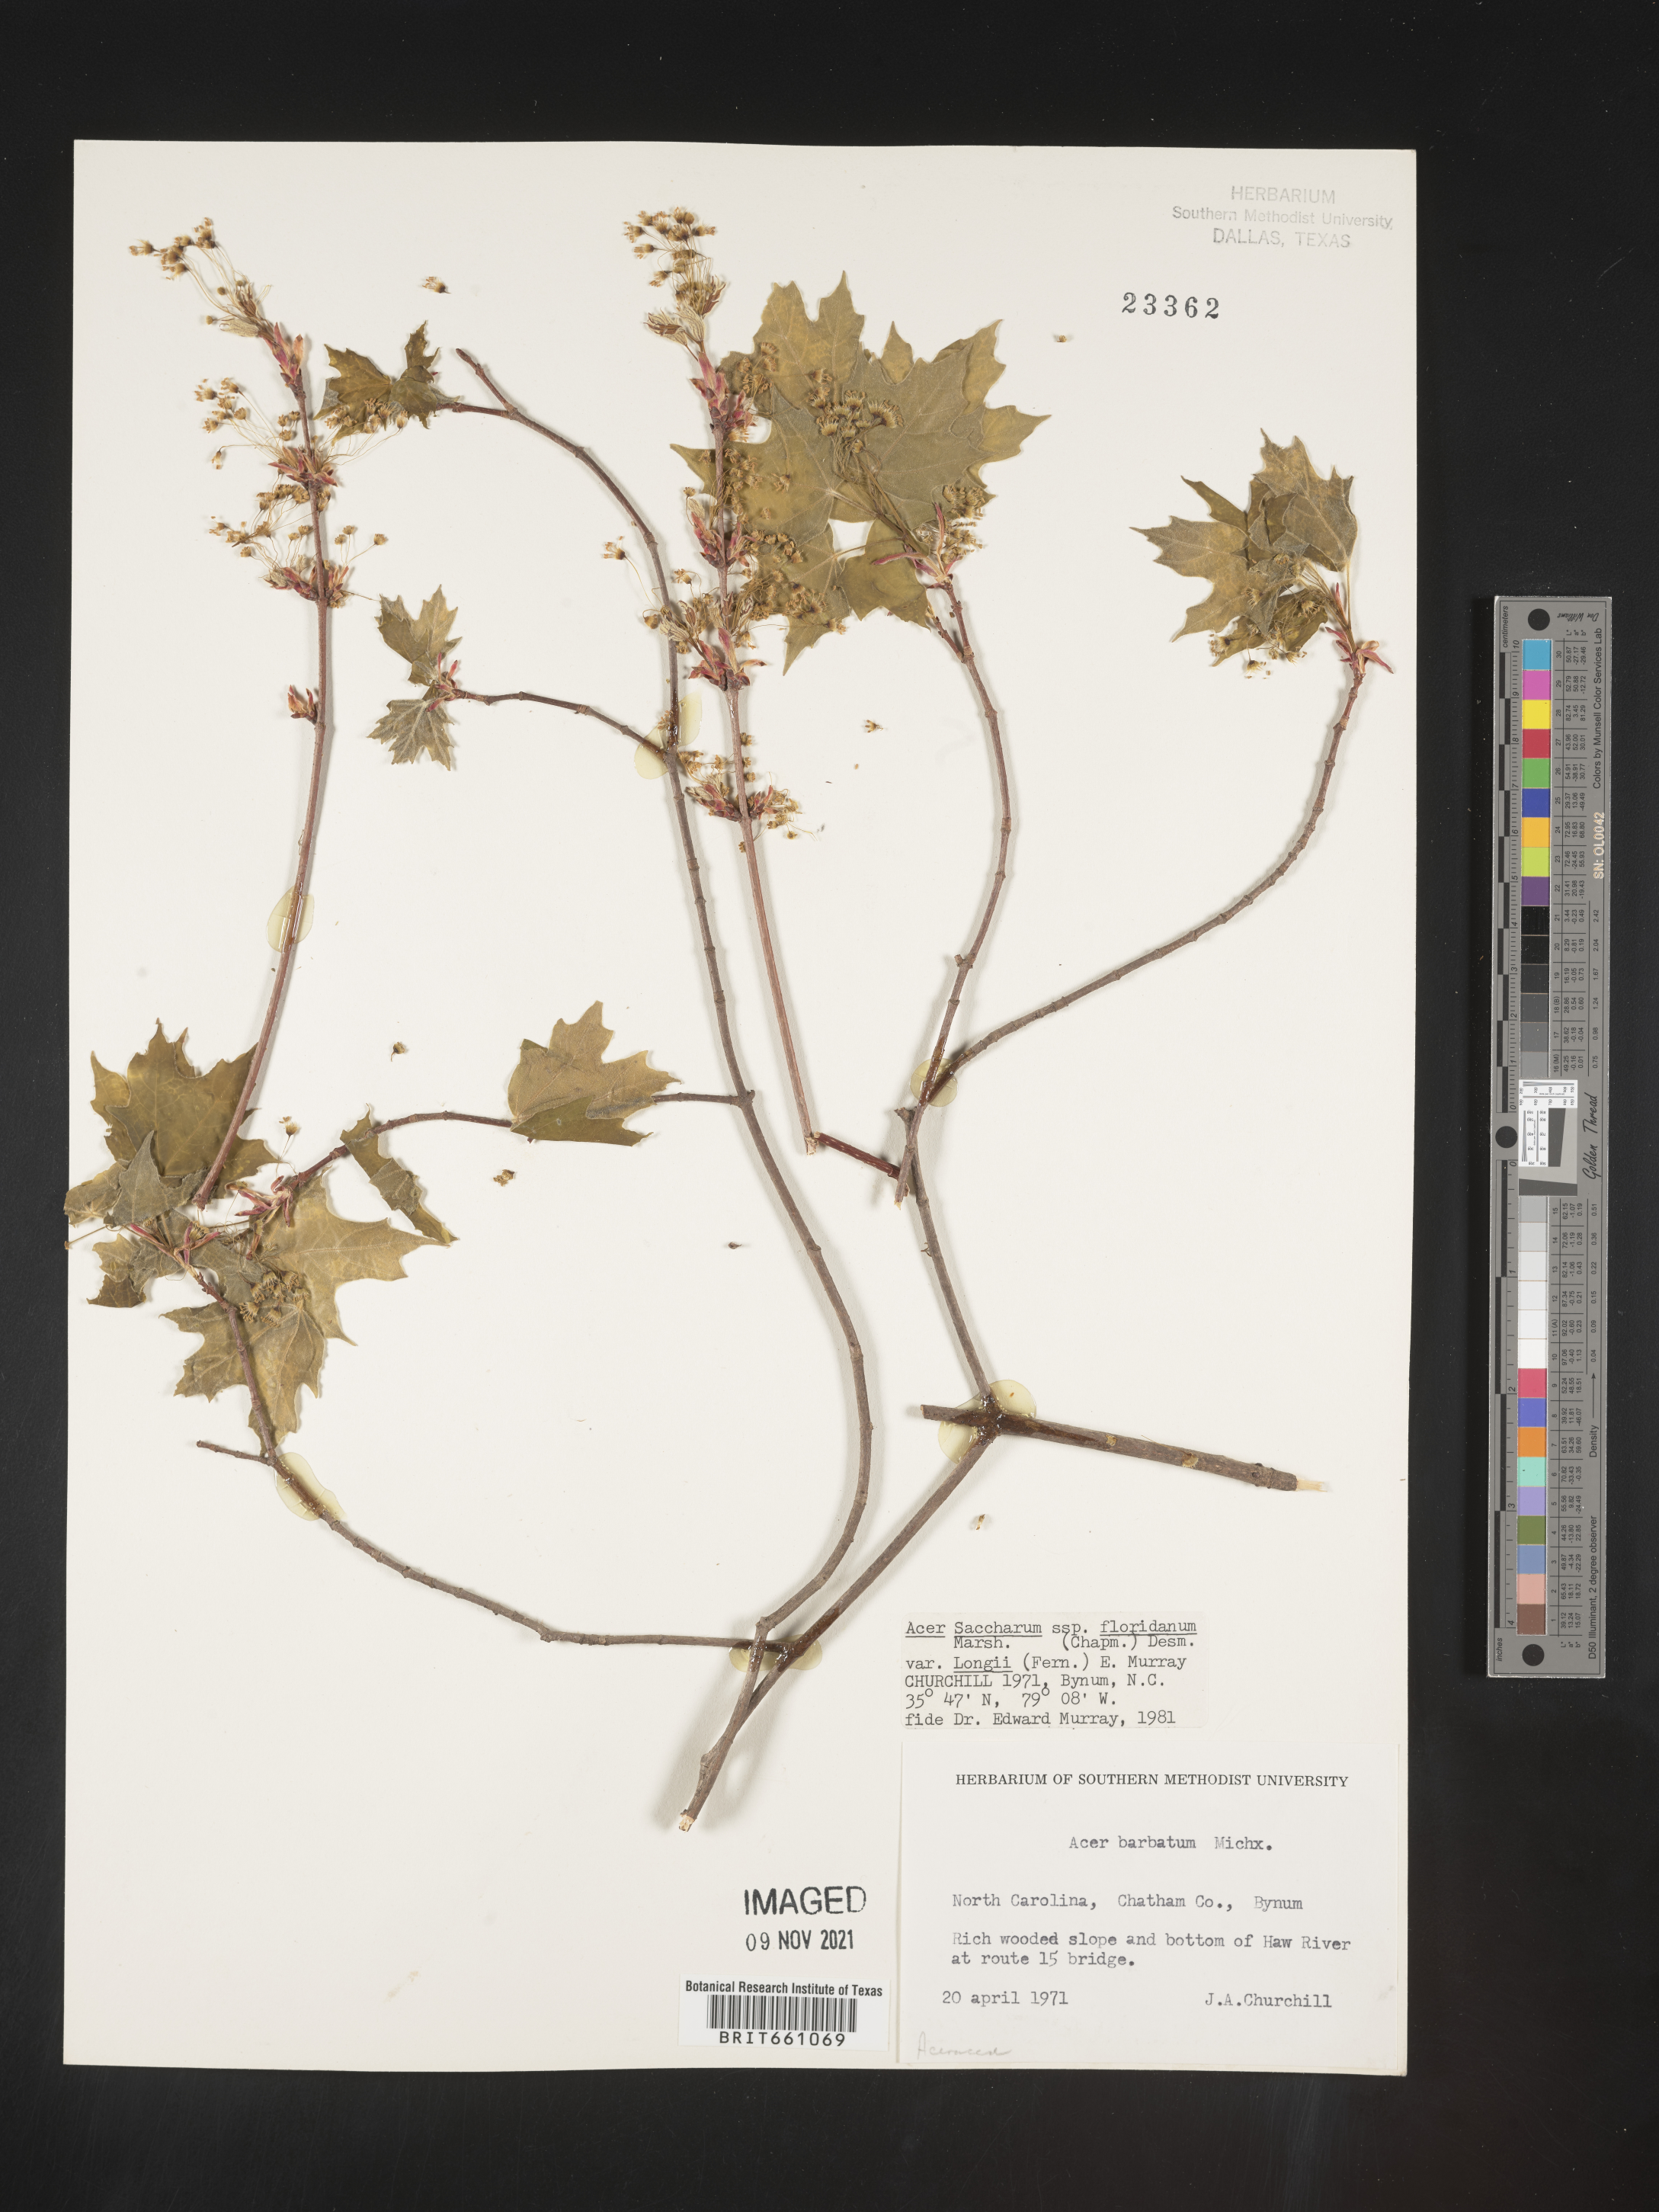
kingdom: Plantae
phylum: Tracheophyta
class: Magnoliopsida
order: Sapindales
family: Sapindaceae
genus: Acer
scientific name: Acer barbatum
